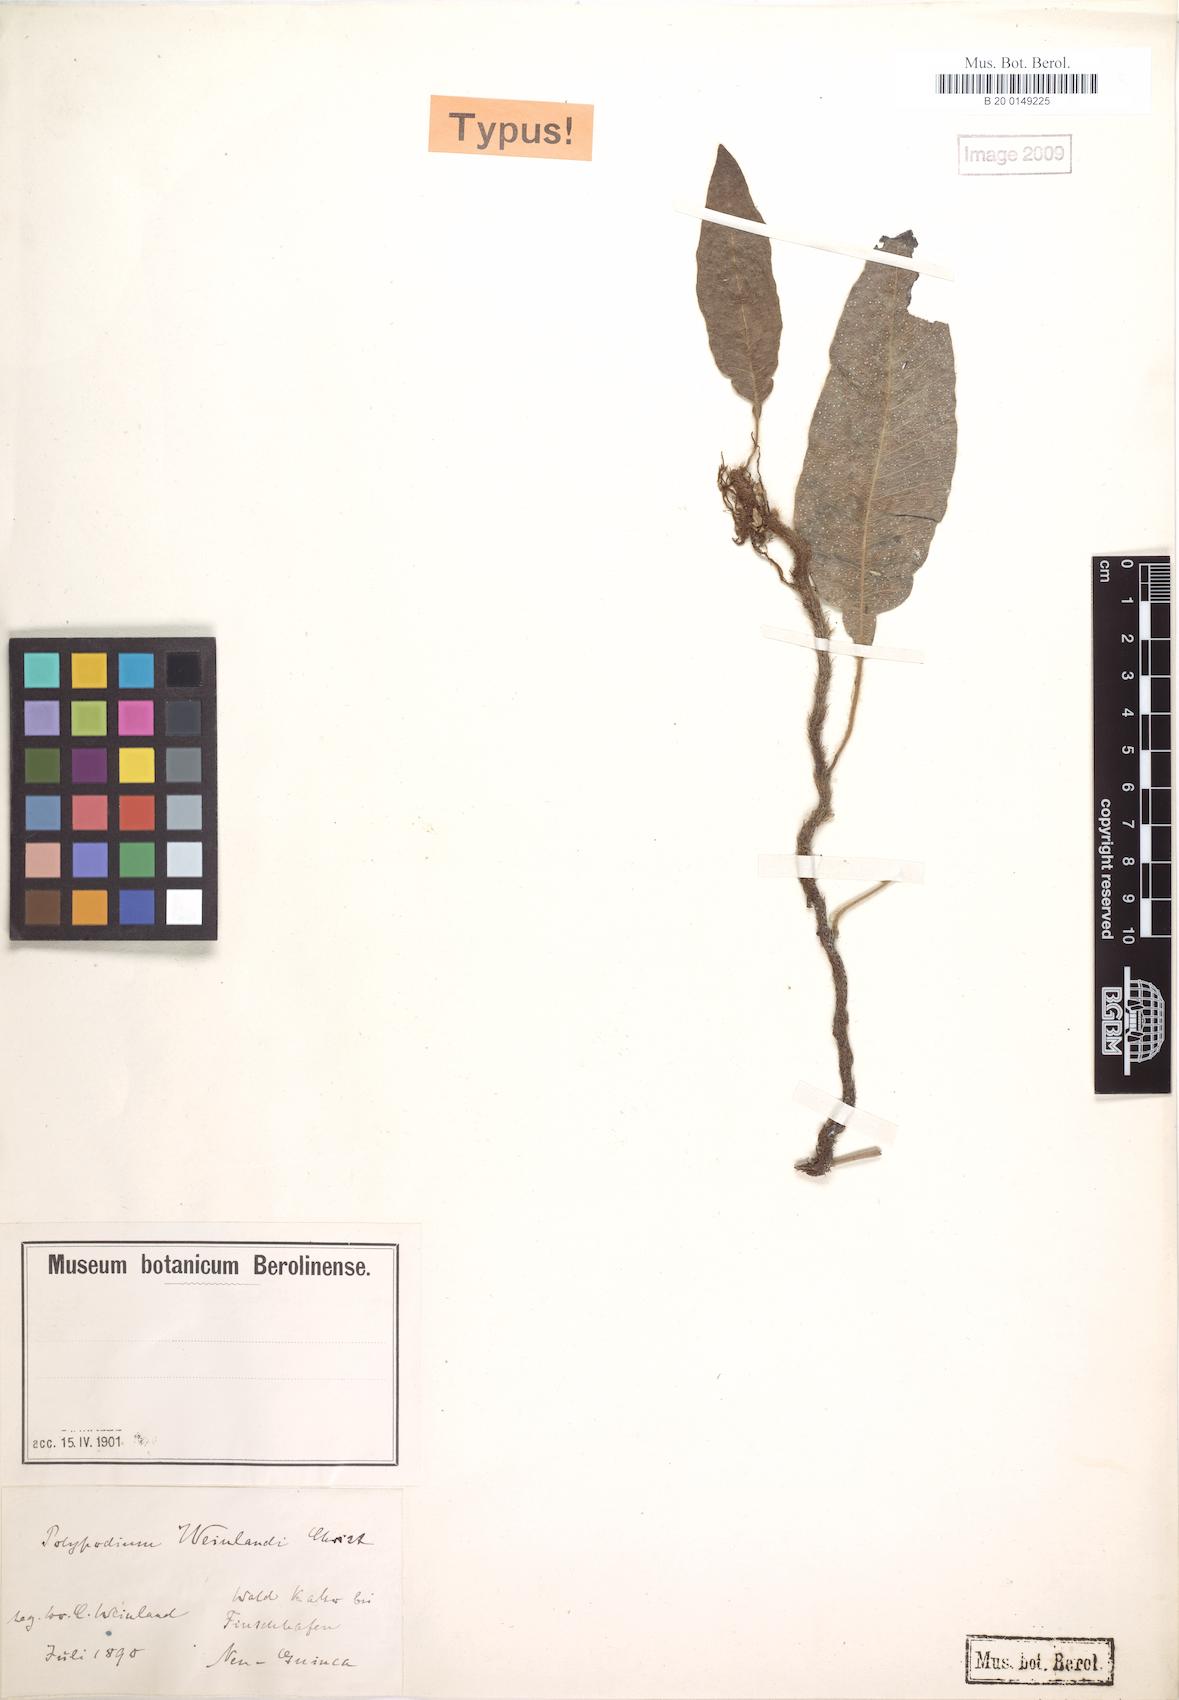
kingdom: Plantae
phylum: Tracheophyta
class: Polypodiopsida
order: Polypodiales
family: Tectariaceae
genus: Tectaria
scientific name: Tectaria durvillei
